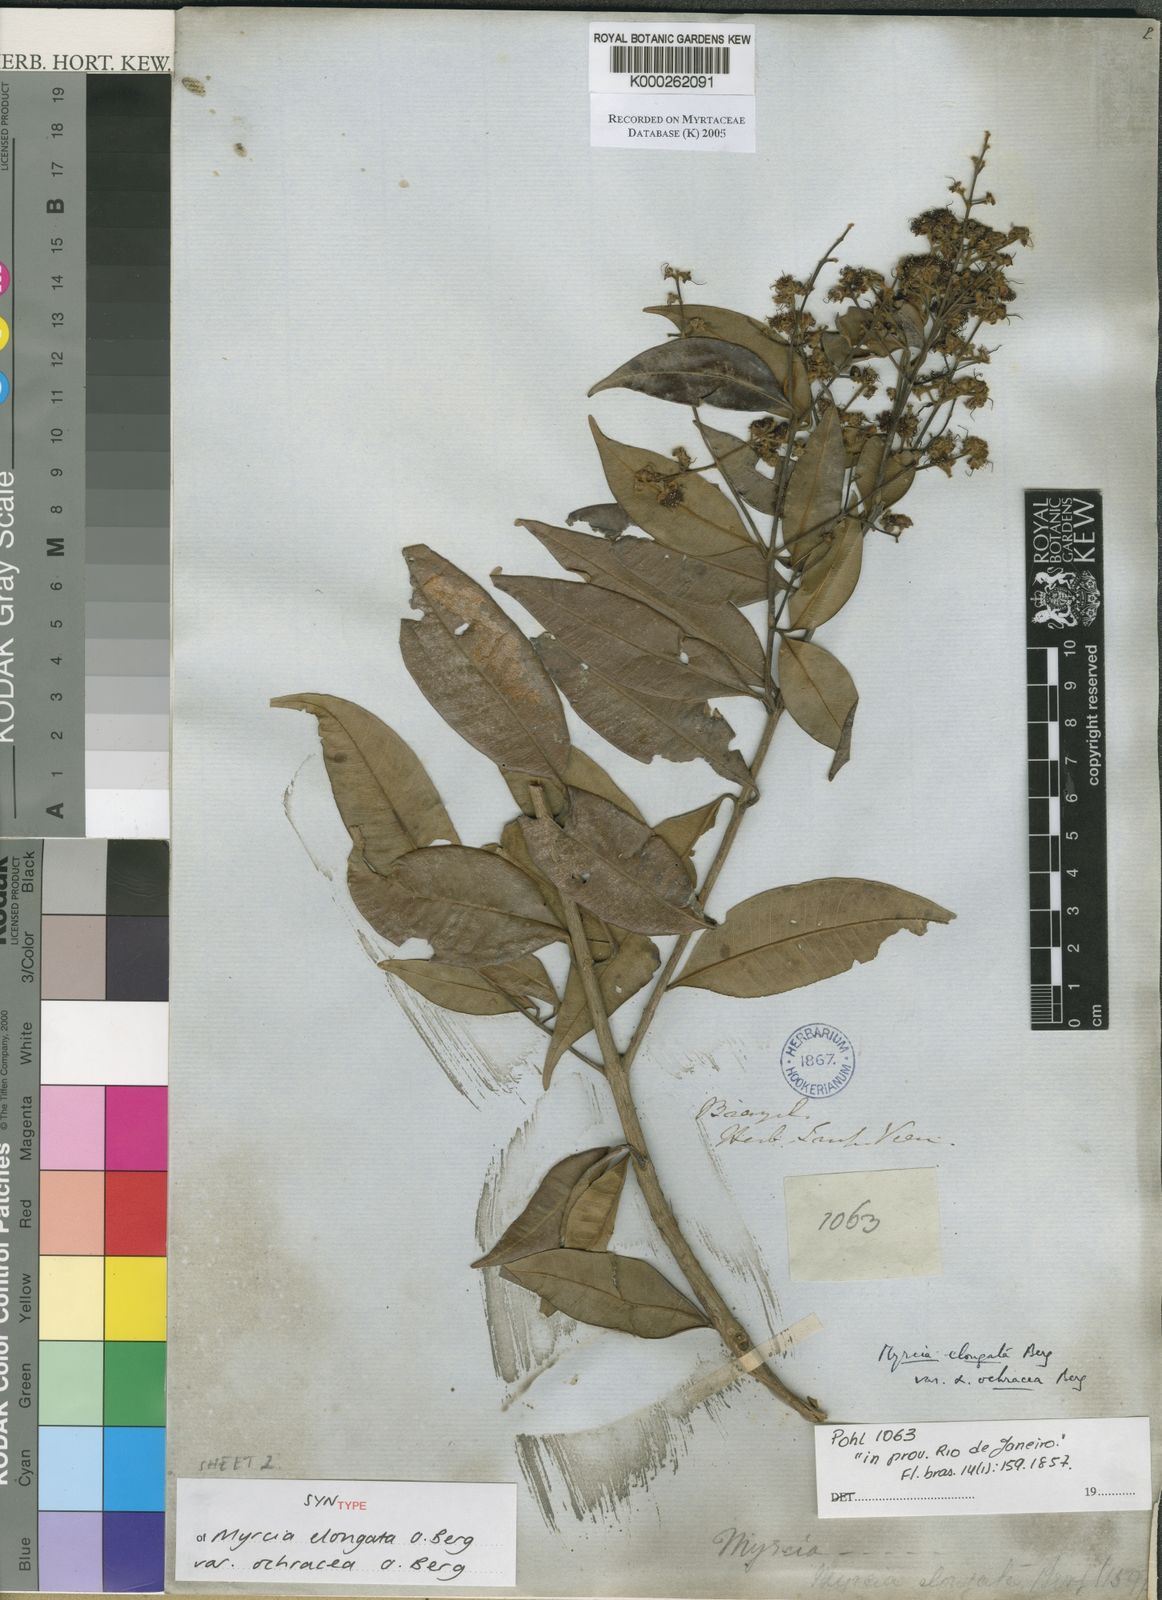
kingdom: Plantae
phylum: Tracheophyta
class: Magnoliopsida
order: Myrtales
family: Myrtaceae
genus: Myrcia
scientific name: Myrcia splendens
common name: Surinam cherry
